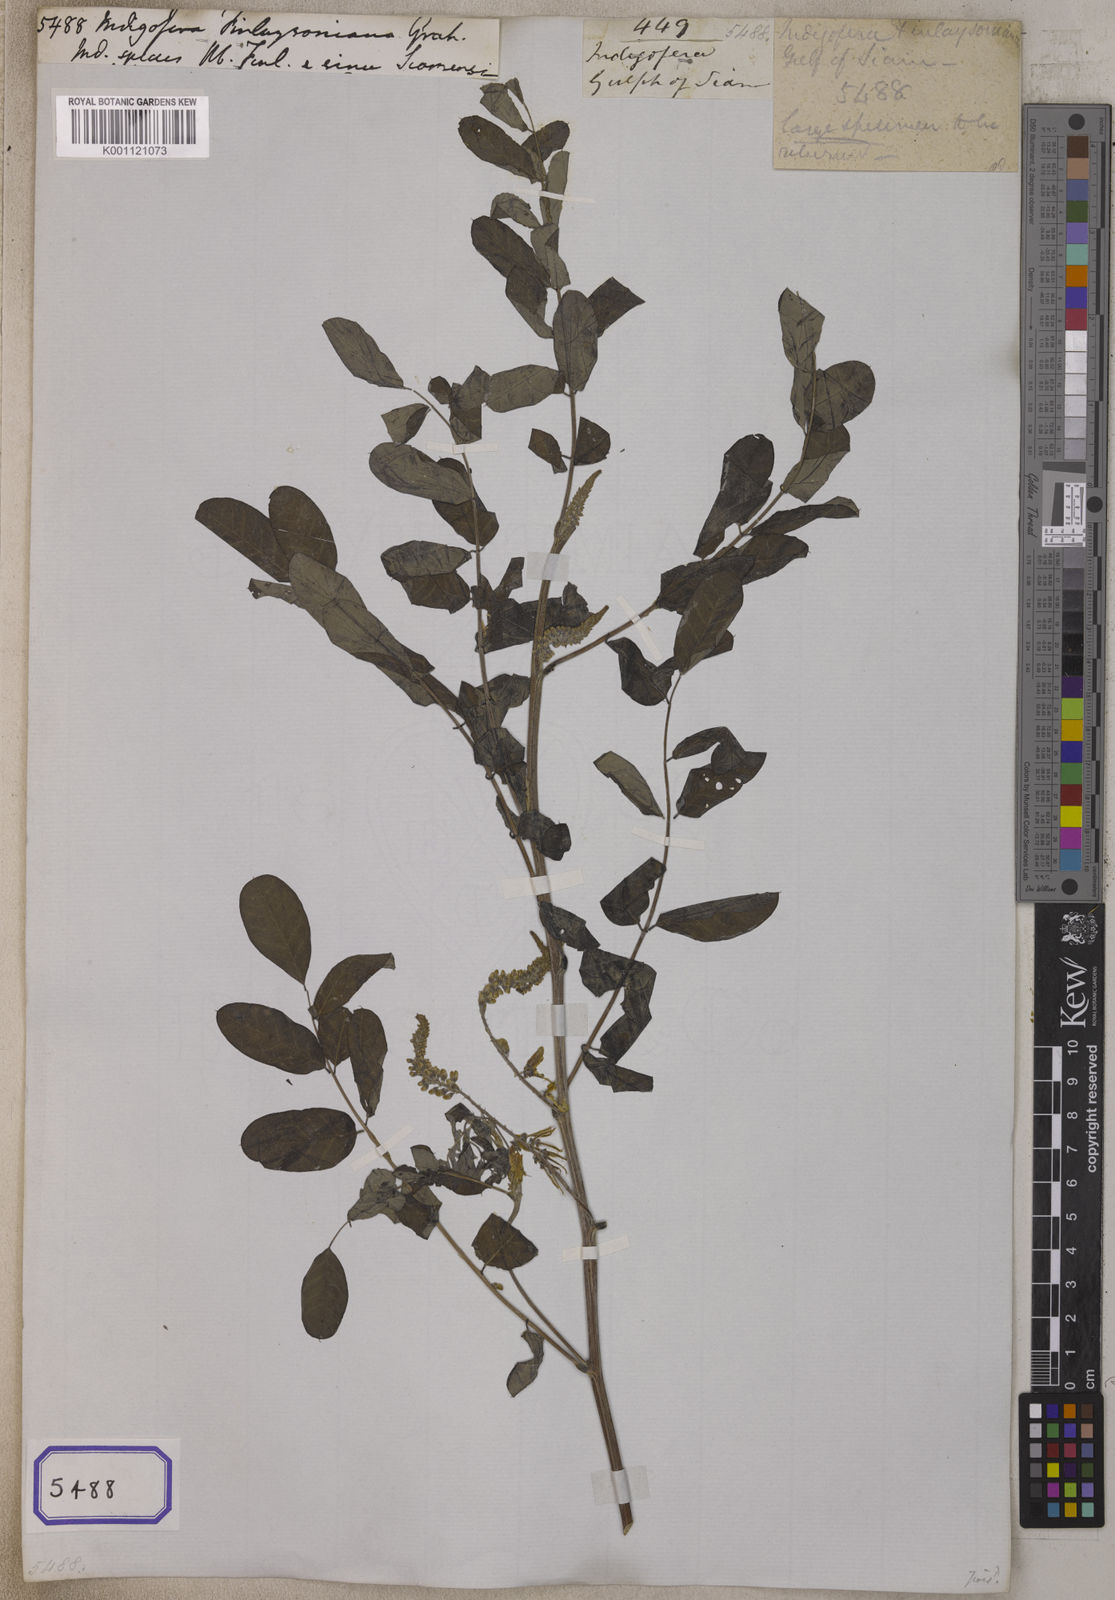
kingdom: Plantae
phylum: Tracheophyta
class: Magnoliopsida
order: Fabales
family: Fabaceae
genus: Indigofera
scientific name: Indigofera
